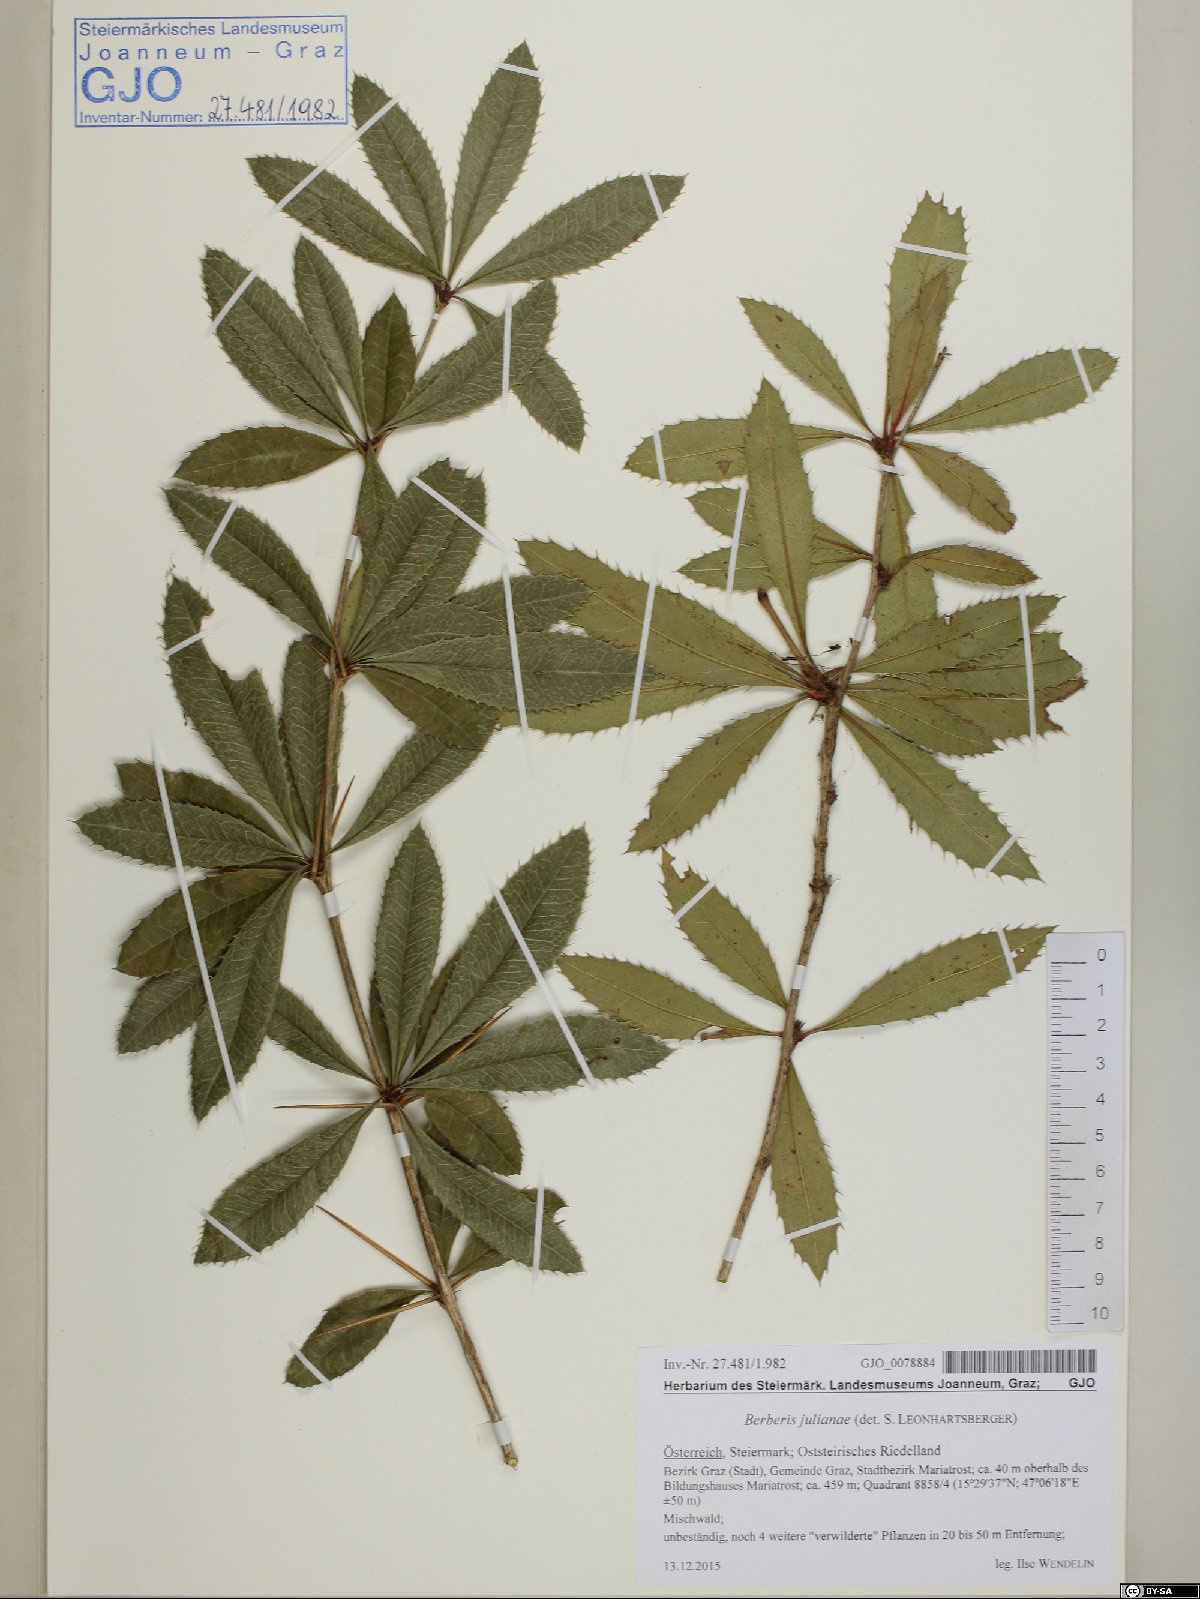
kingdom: Plantae
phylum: Tracheophyta
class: Magnoliopsida
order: Ranunculales
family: Berberidaceae
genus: Berberis
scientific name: Berberis julianae
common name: Wintergreen barberry
